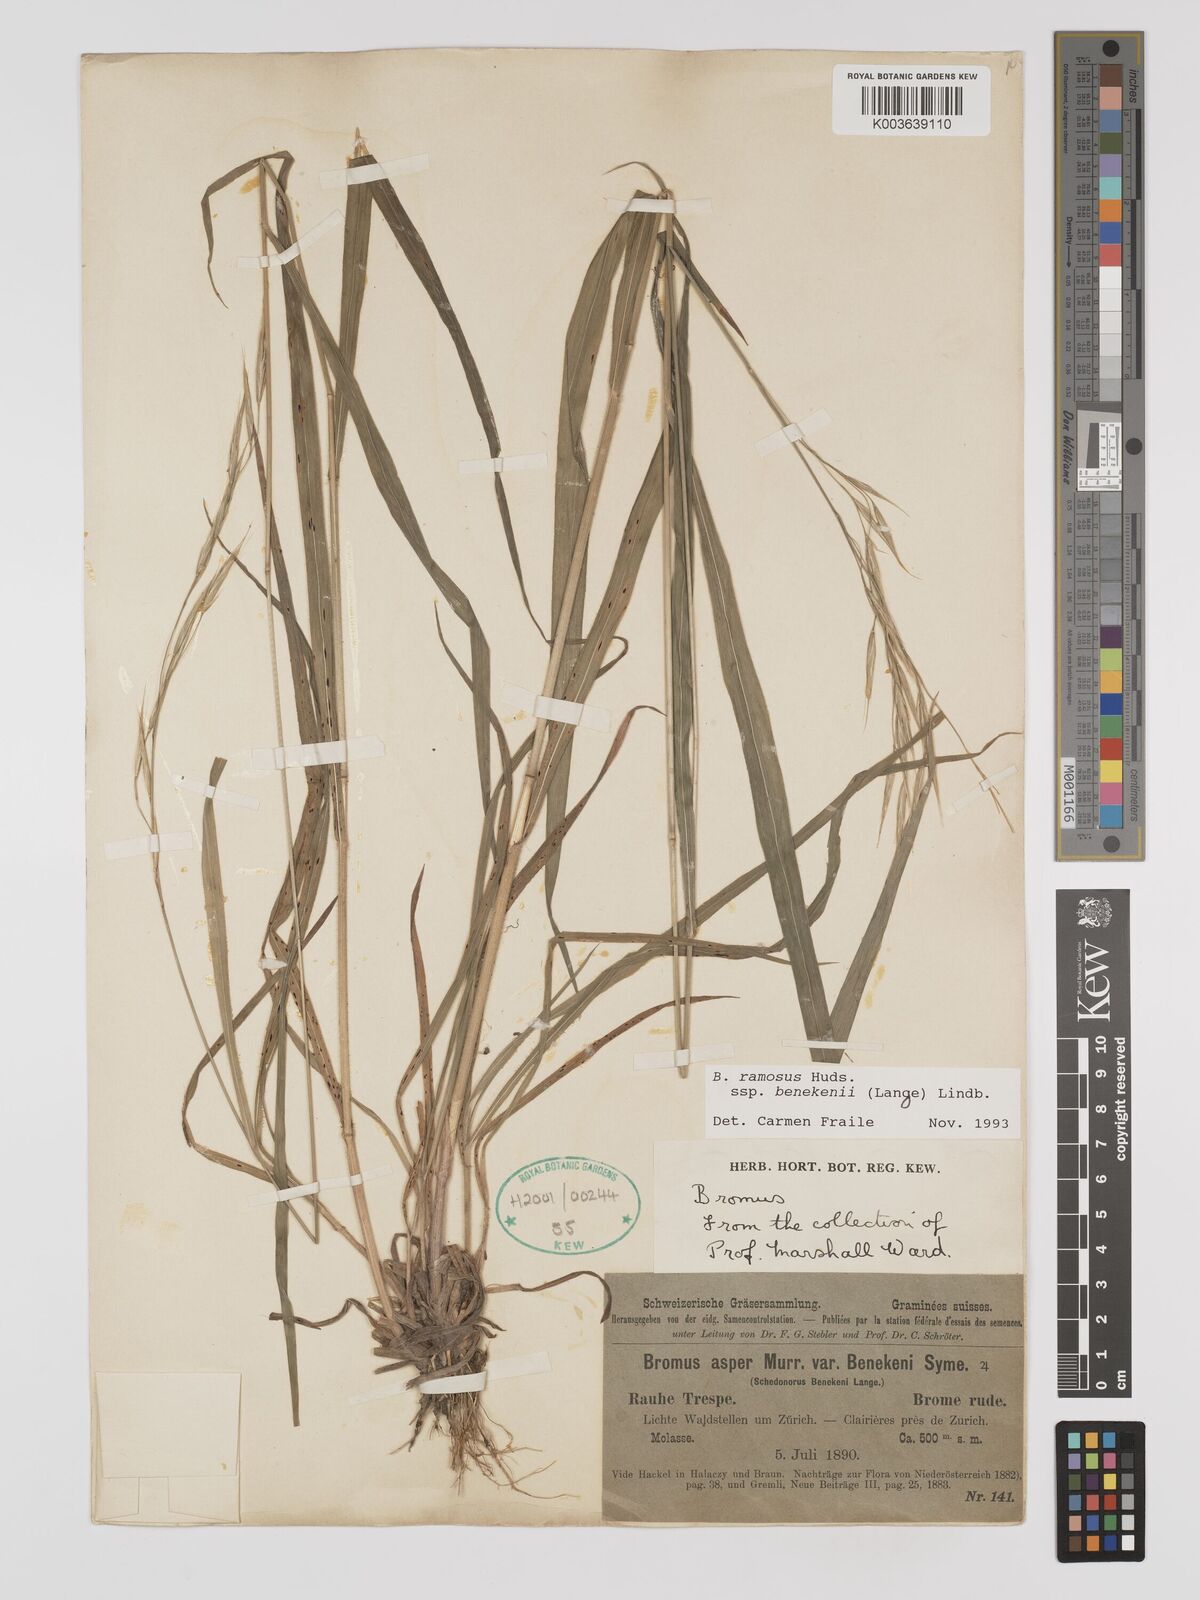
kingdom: Plantae
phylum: Tracheophyta
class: Liliopsida
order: Poales
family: Poaceae
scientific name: Poaceae
